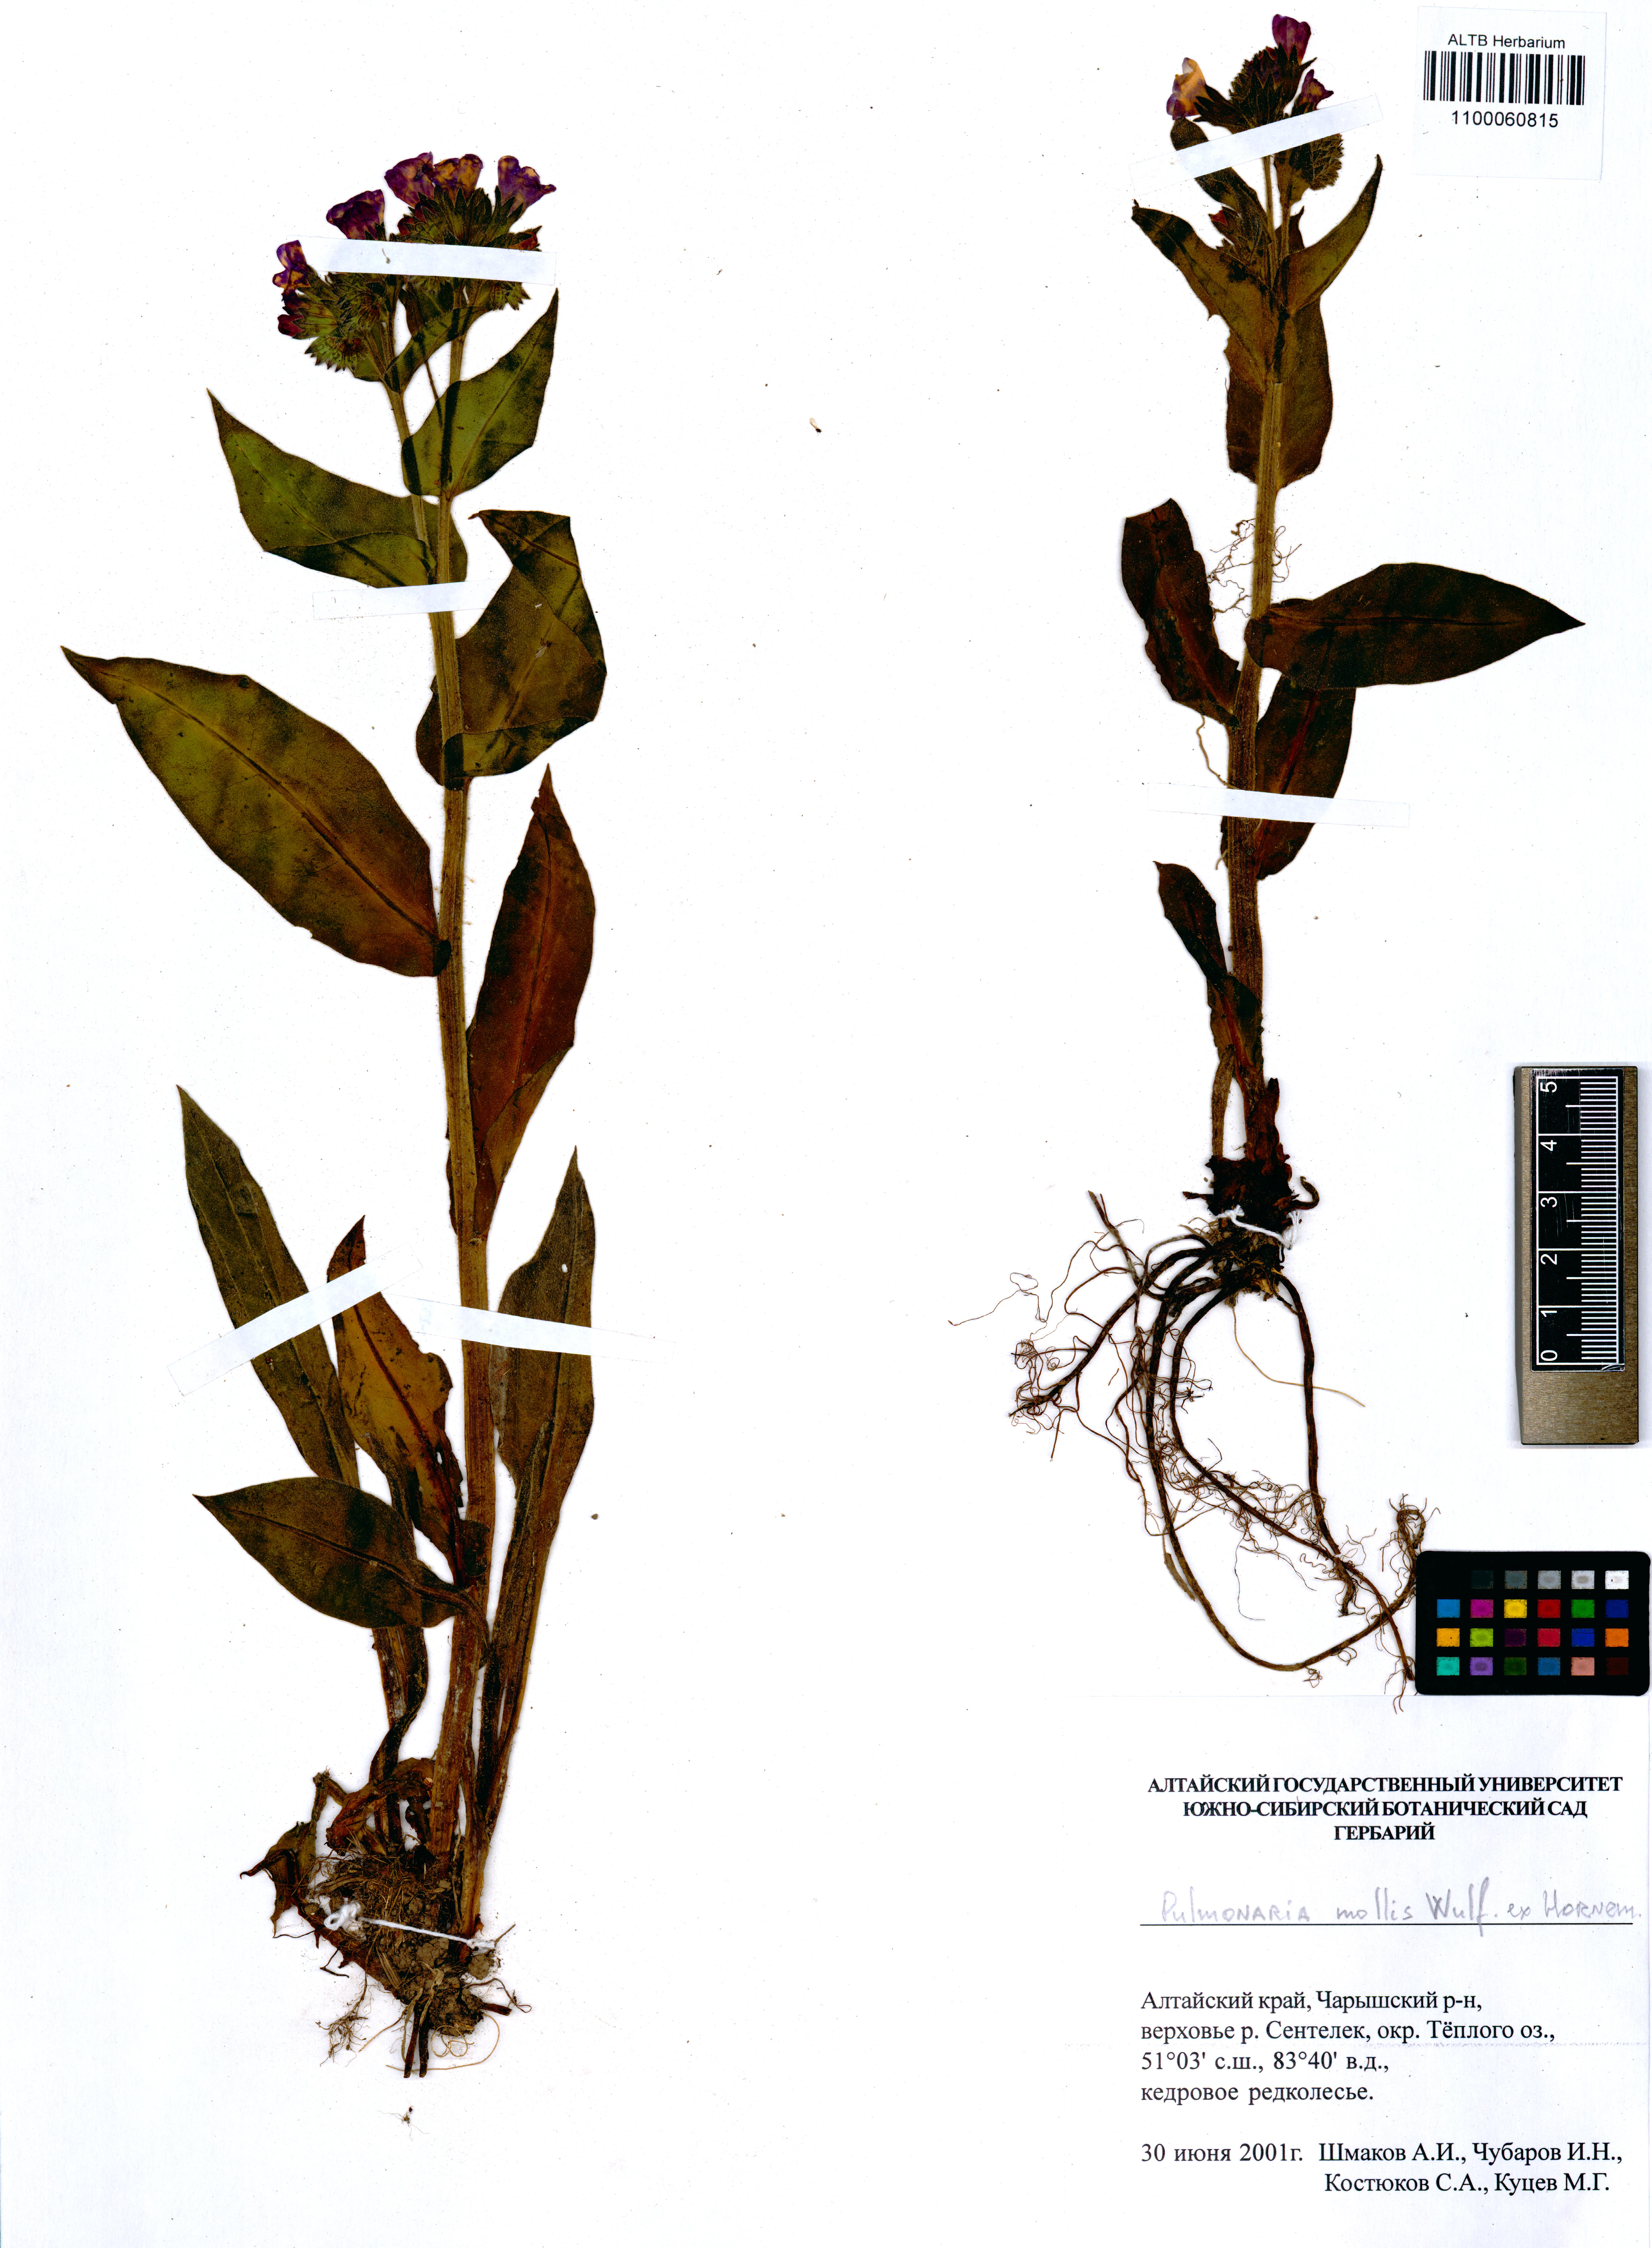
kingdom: Plantae
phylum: Tracheophyta
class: Magnoliopsida
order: Boraginales
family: Boraginaceae
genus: Pulmonaria
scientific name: Pulmonaria mollis
